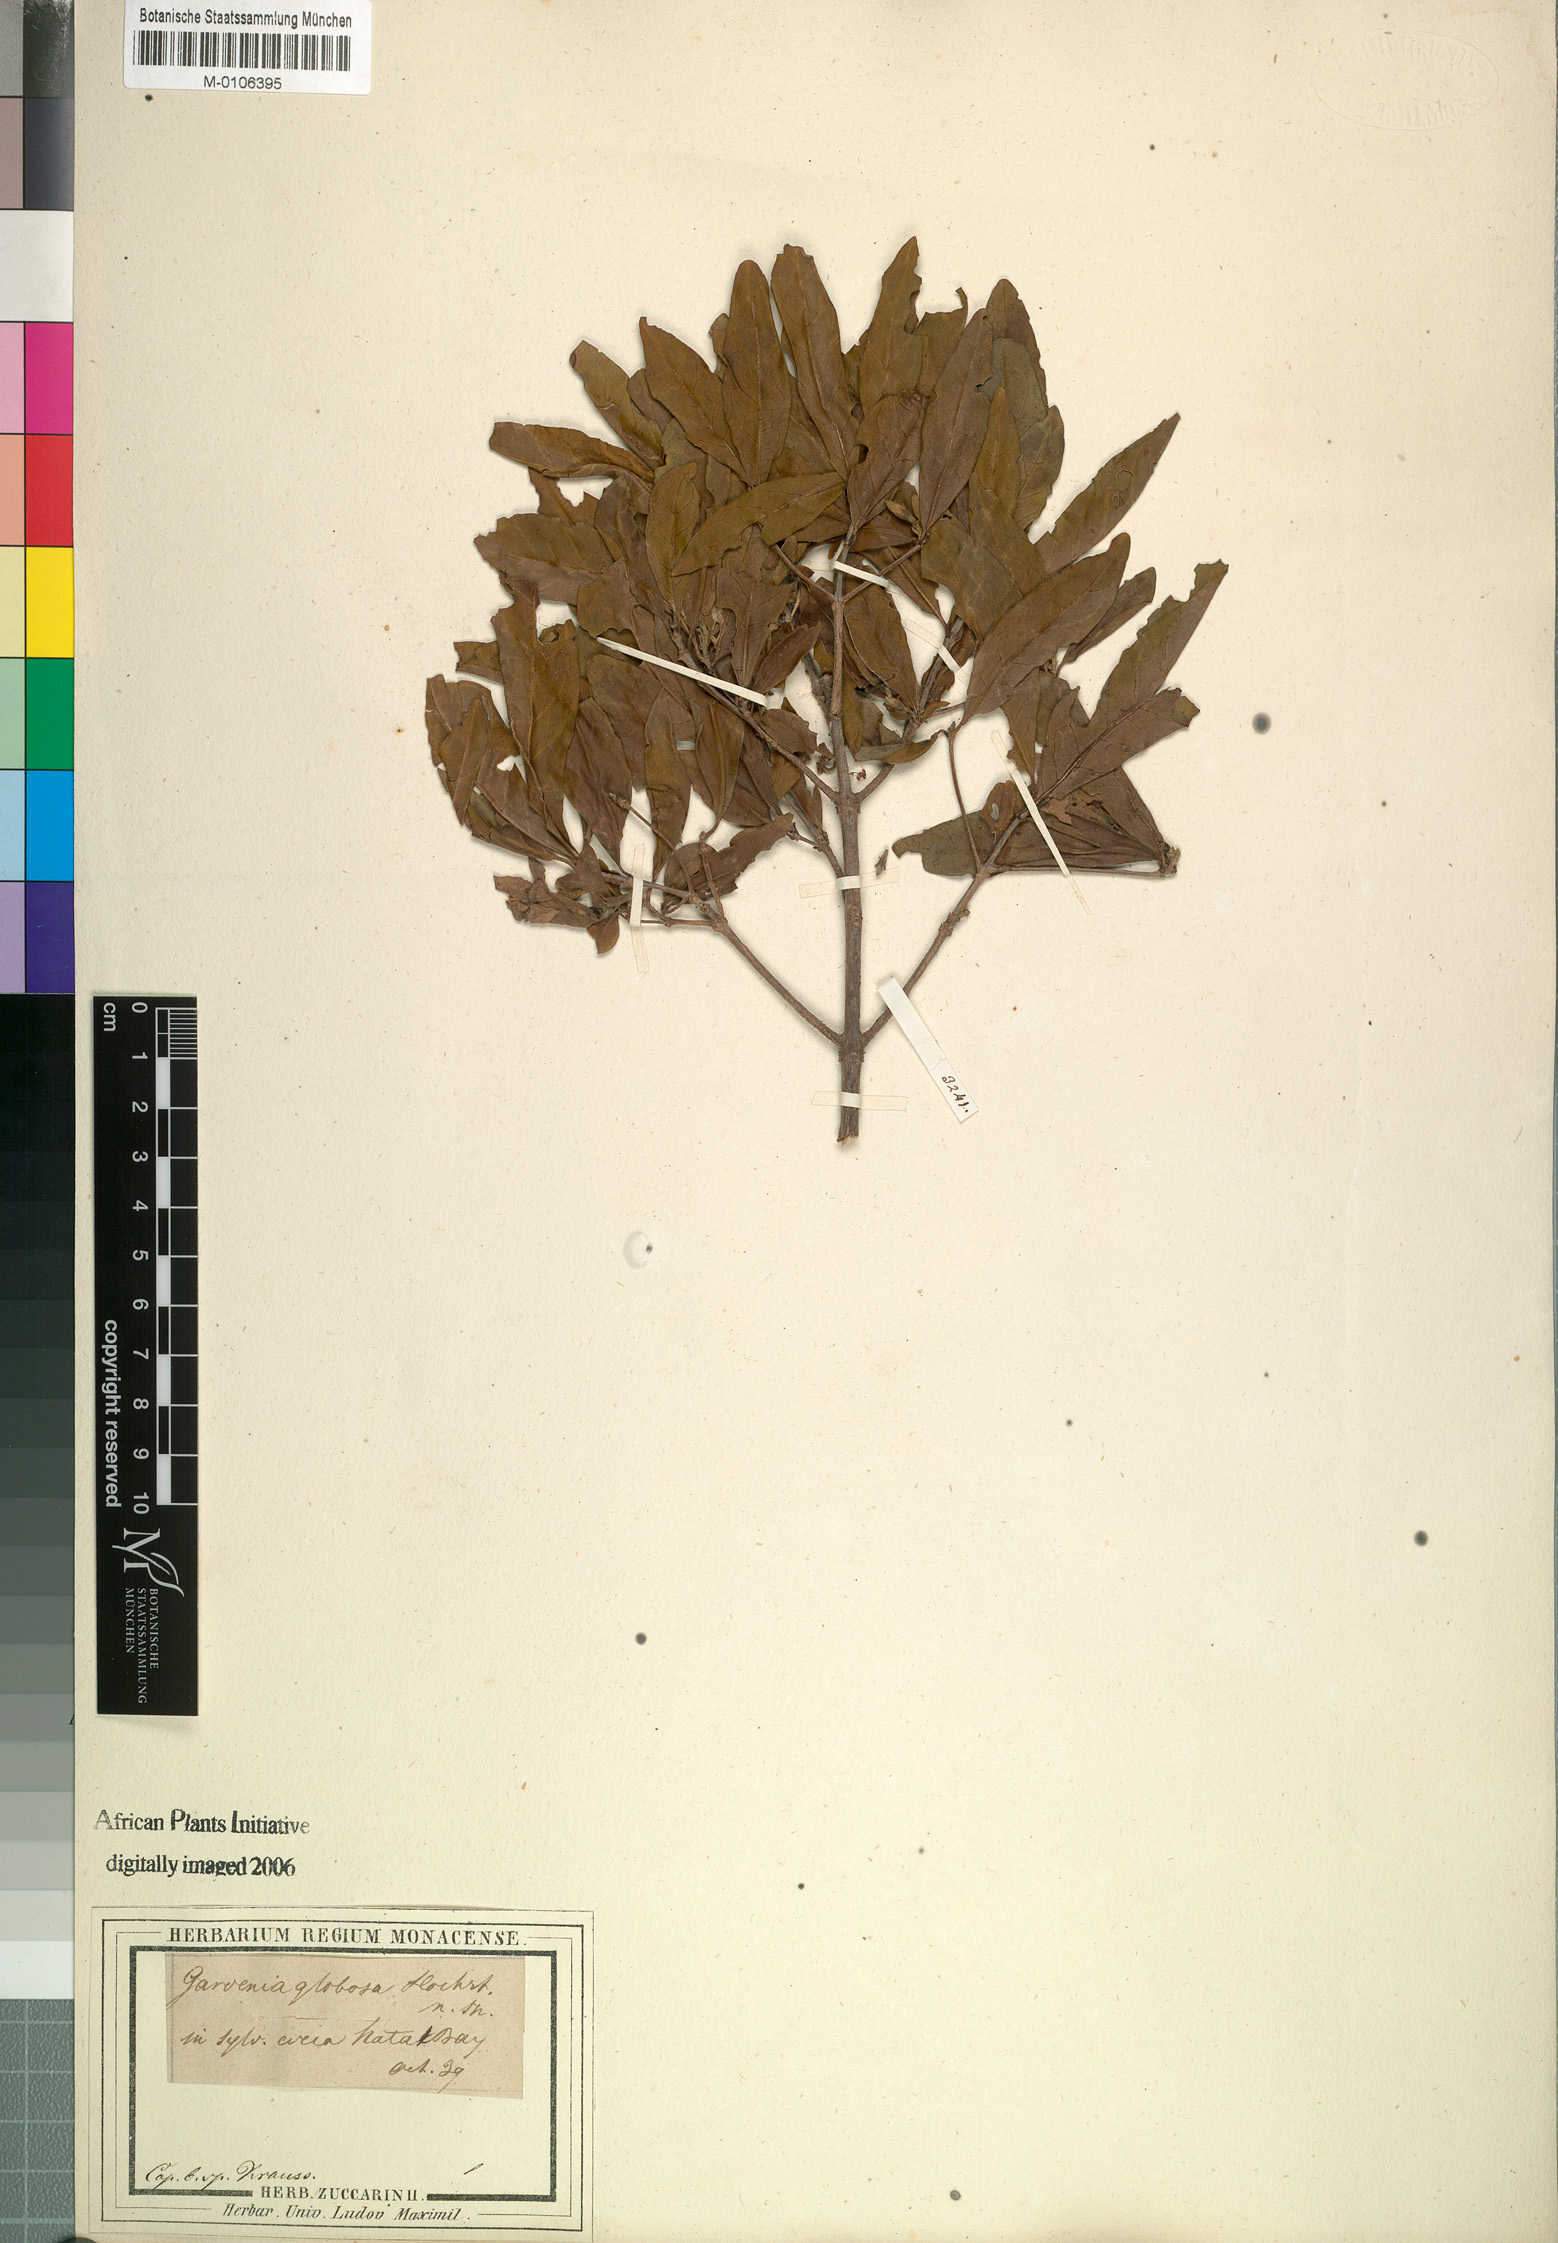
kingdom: Plantae
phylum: Tracheophyta
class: Magnoliopsida
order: Gentianales
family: Rubiaceae
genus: Rothmannia
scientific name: Rothmannia globosa
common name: September bells
